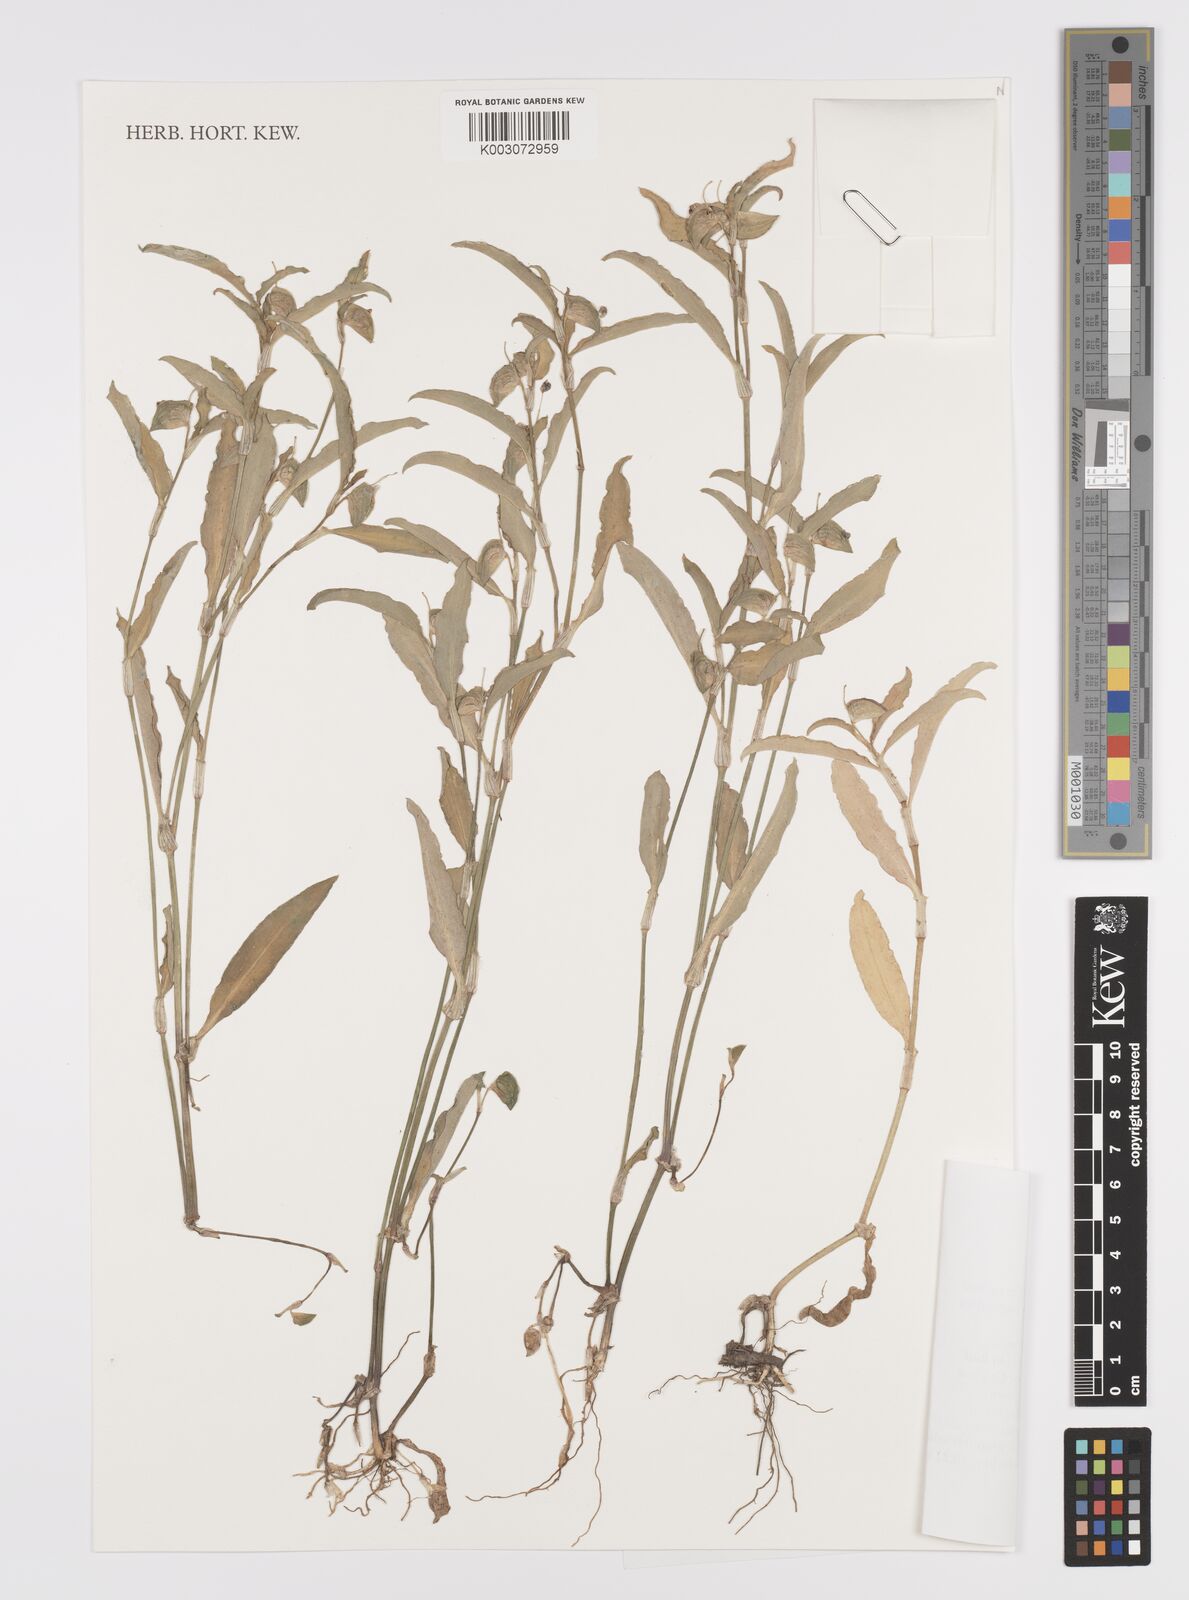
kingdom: Plantae
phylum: Tracheophyta
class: Liliopsida
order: Commelinales
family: Commelinaceae
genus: Commelina
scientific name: Commelina forskaolii
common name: Rat's ear
